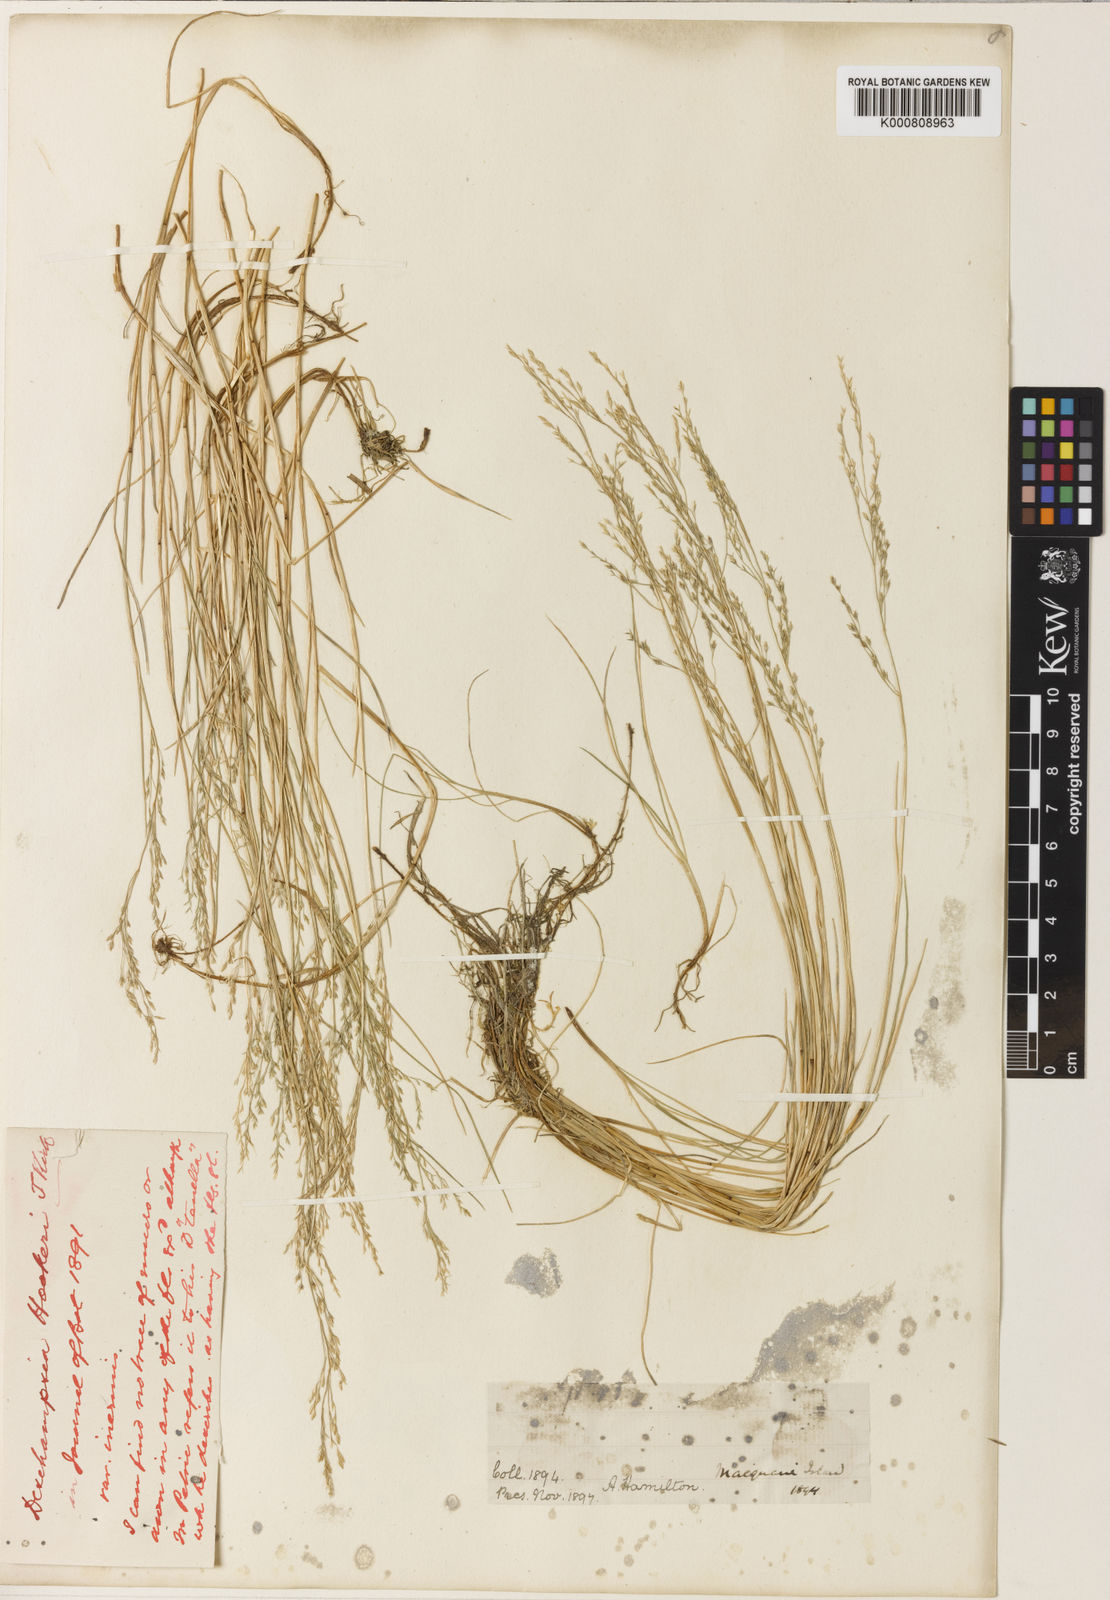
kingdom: Plantae
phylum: Tracheophyta
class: Liliopsida
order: Poales
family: Poaceae
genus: Deschampsia
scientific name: Deschampsia chapmanii
